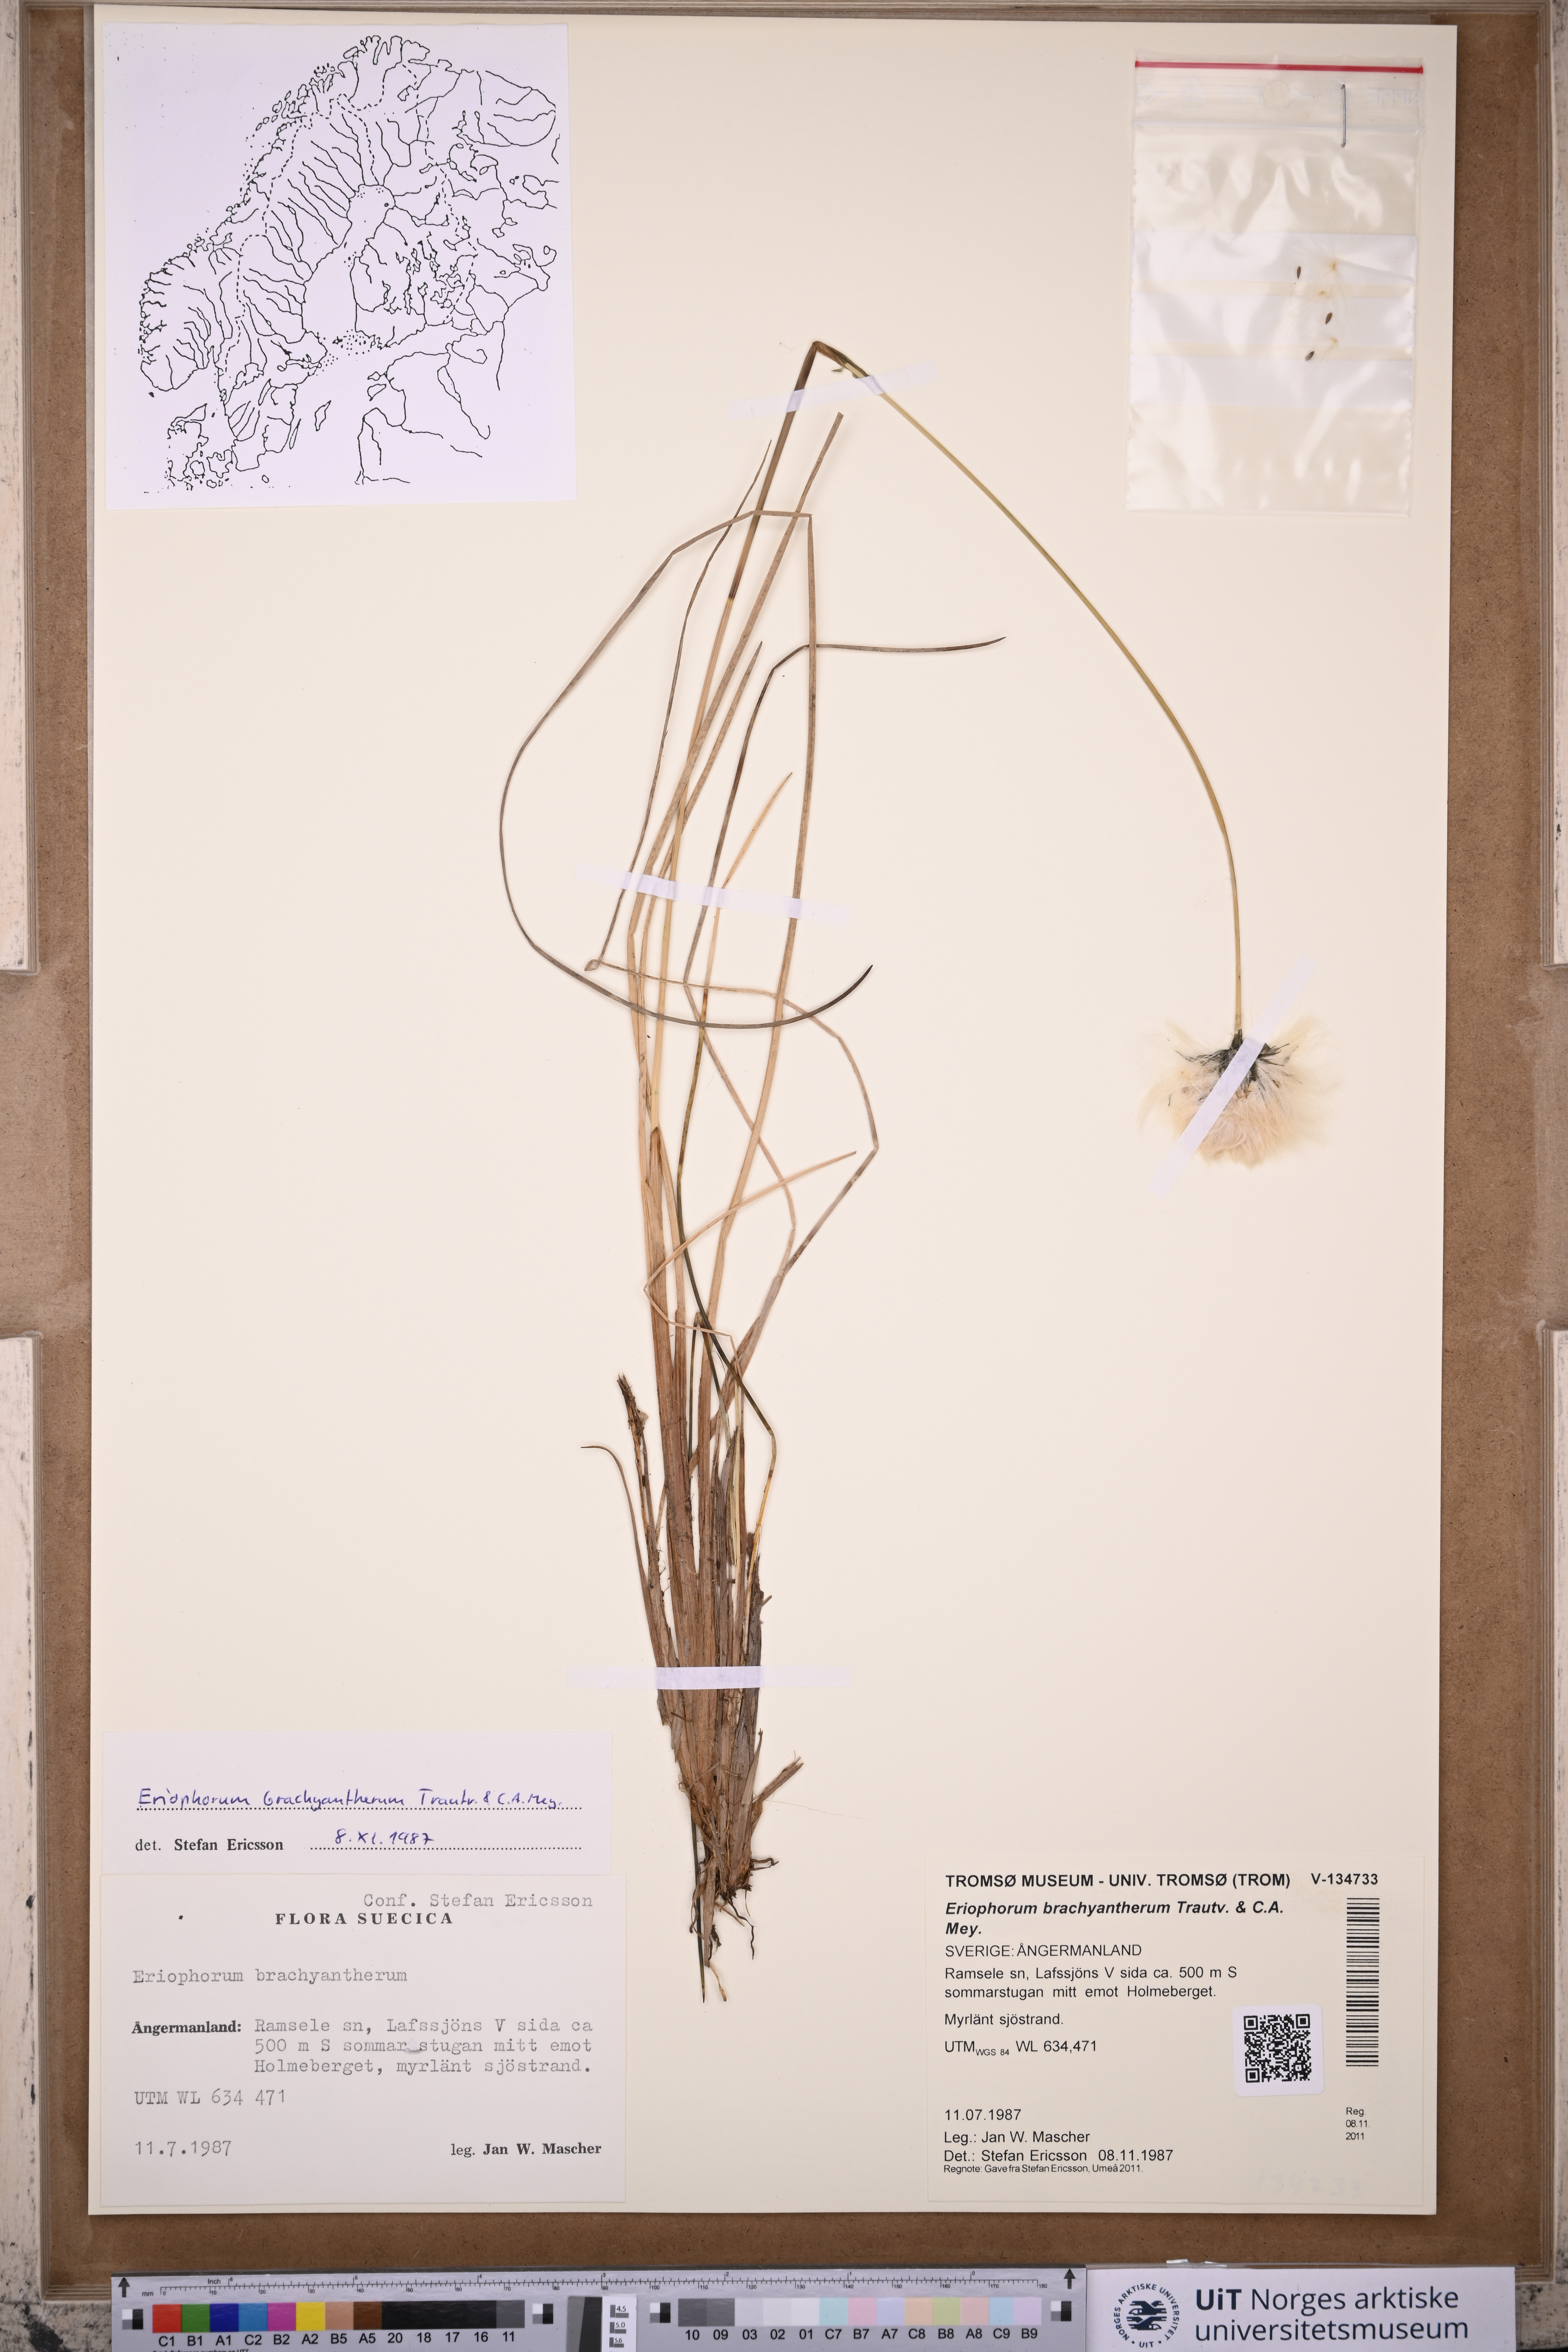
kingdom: Plantae
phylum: Tracheophyta
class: Liliopsida
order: Poales
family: Cyperaceae
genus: Eriophorum
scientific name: Eriophorum brachyantherum
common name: Closed-sheathed cottongrass
